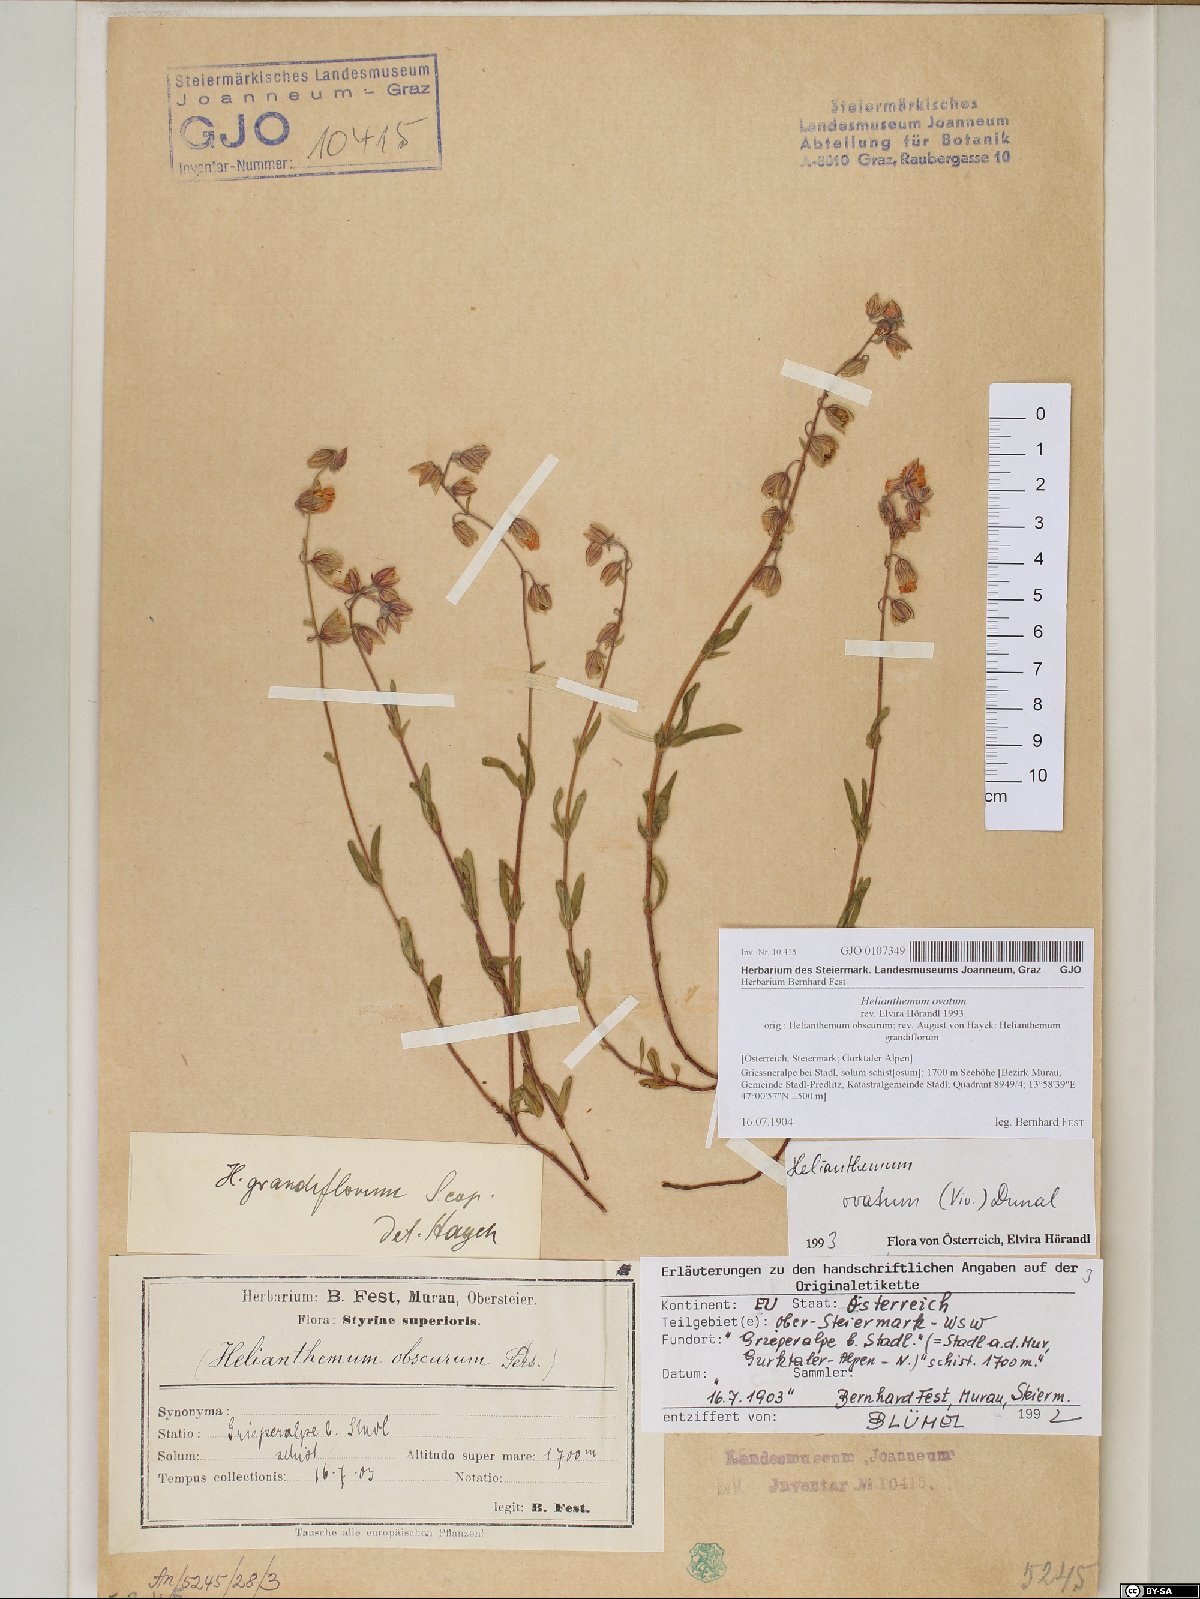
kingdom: Plantae
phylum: Tracheophyta
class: Magnoliopsida
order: Malvales
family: Cistaceae
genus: Helianthemum
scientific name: Helianthemum nummularium
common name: Common rock-rose
